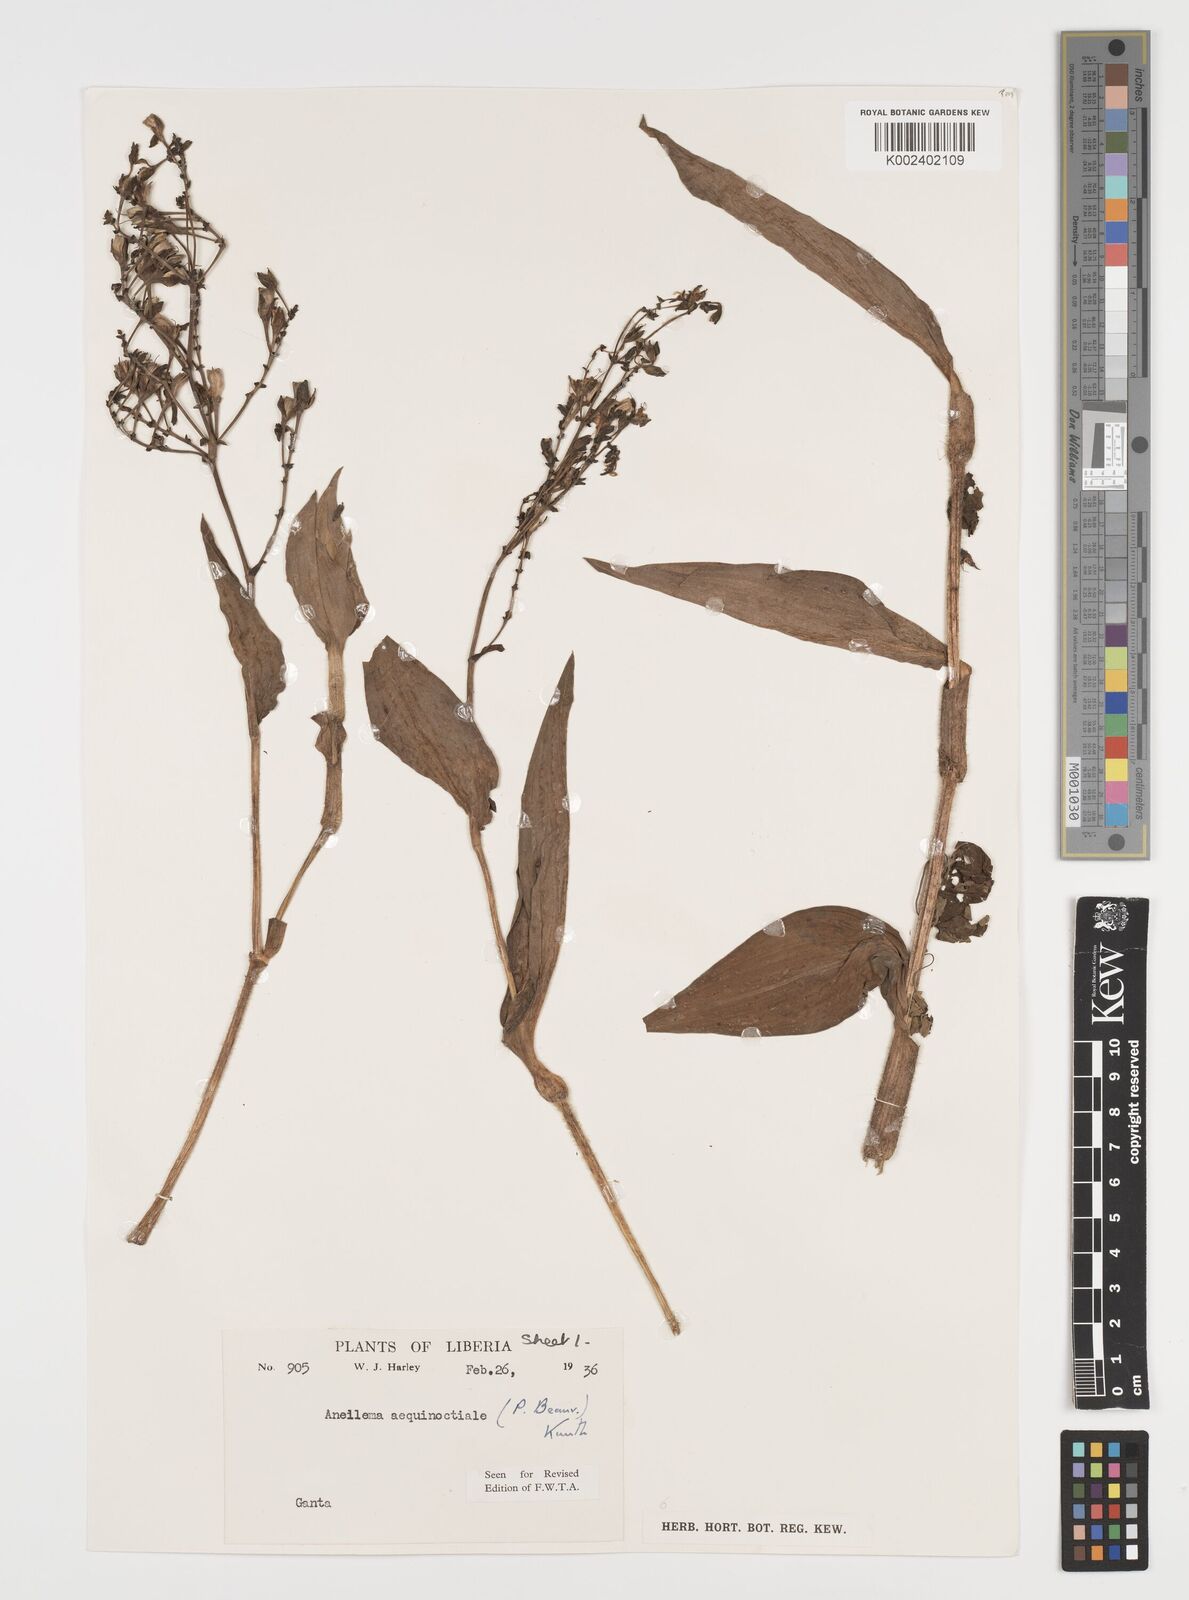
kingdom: Plantae
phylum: Tracheophyta
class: Liliopsida
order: Commelinales
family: Commelinaceae
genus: Aneilema
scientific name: Aneilema aequinoctiale
